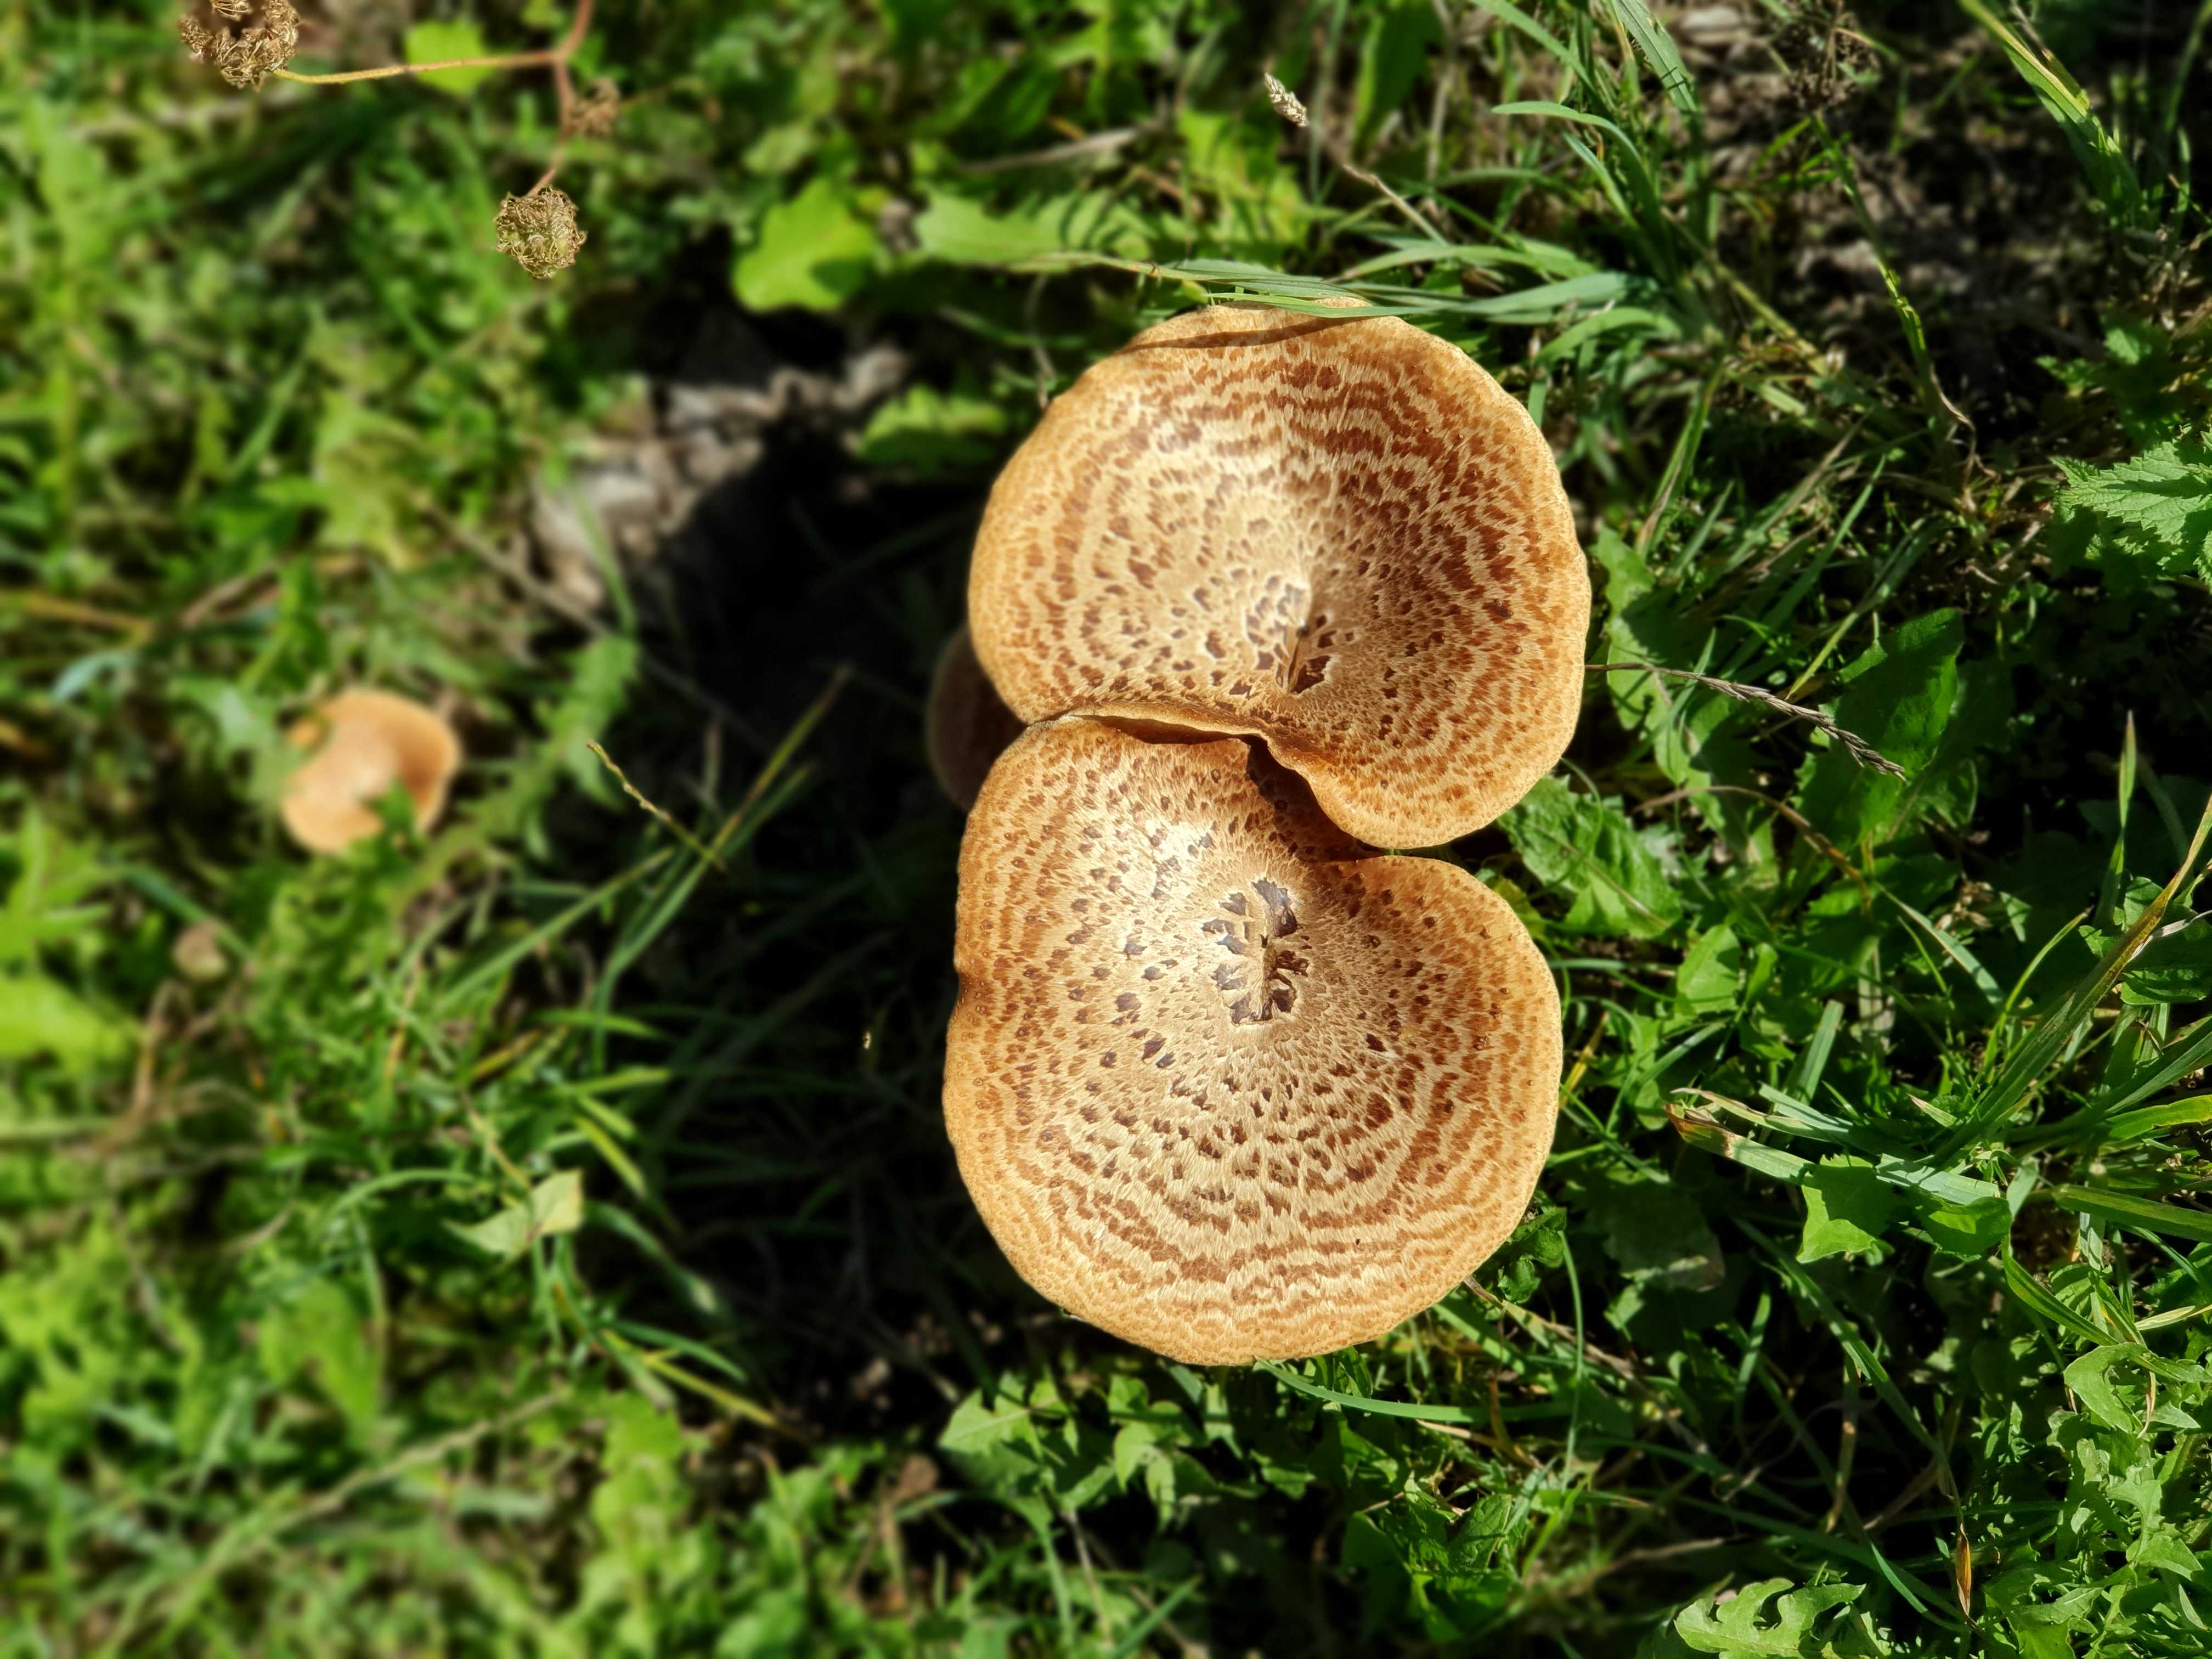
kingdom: Fungi
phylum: Basidiomycota
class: Agaricomycetes
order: Polyporales
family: Polyporaceae
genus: Cerioporus
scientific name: Cerioporus squamosus
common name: skællet stilkporesvamp
